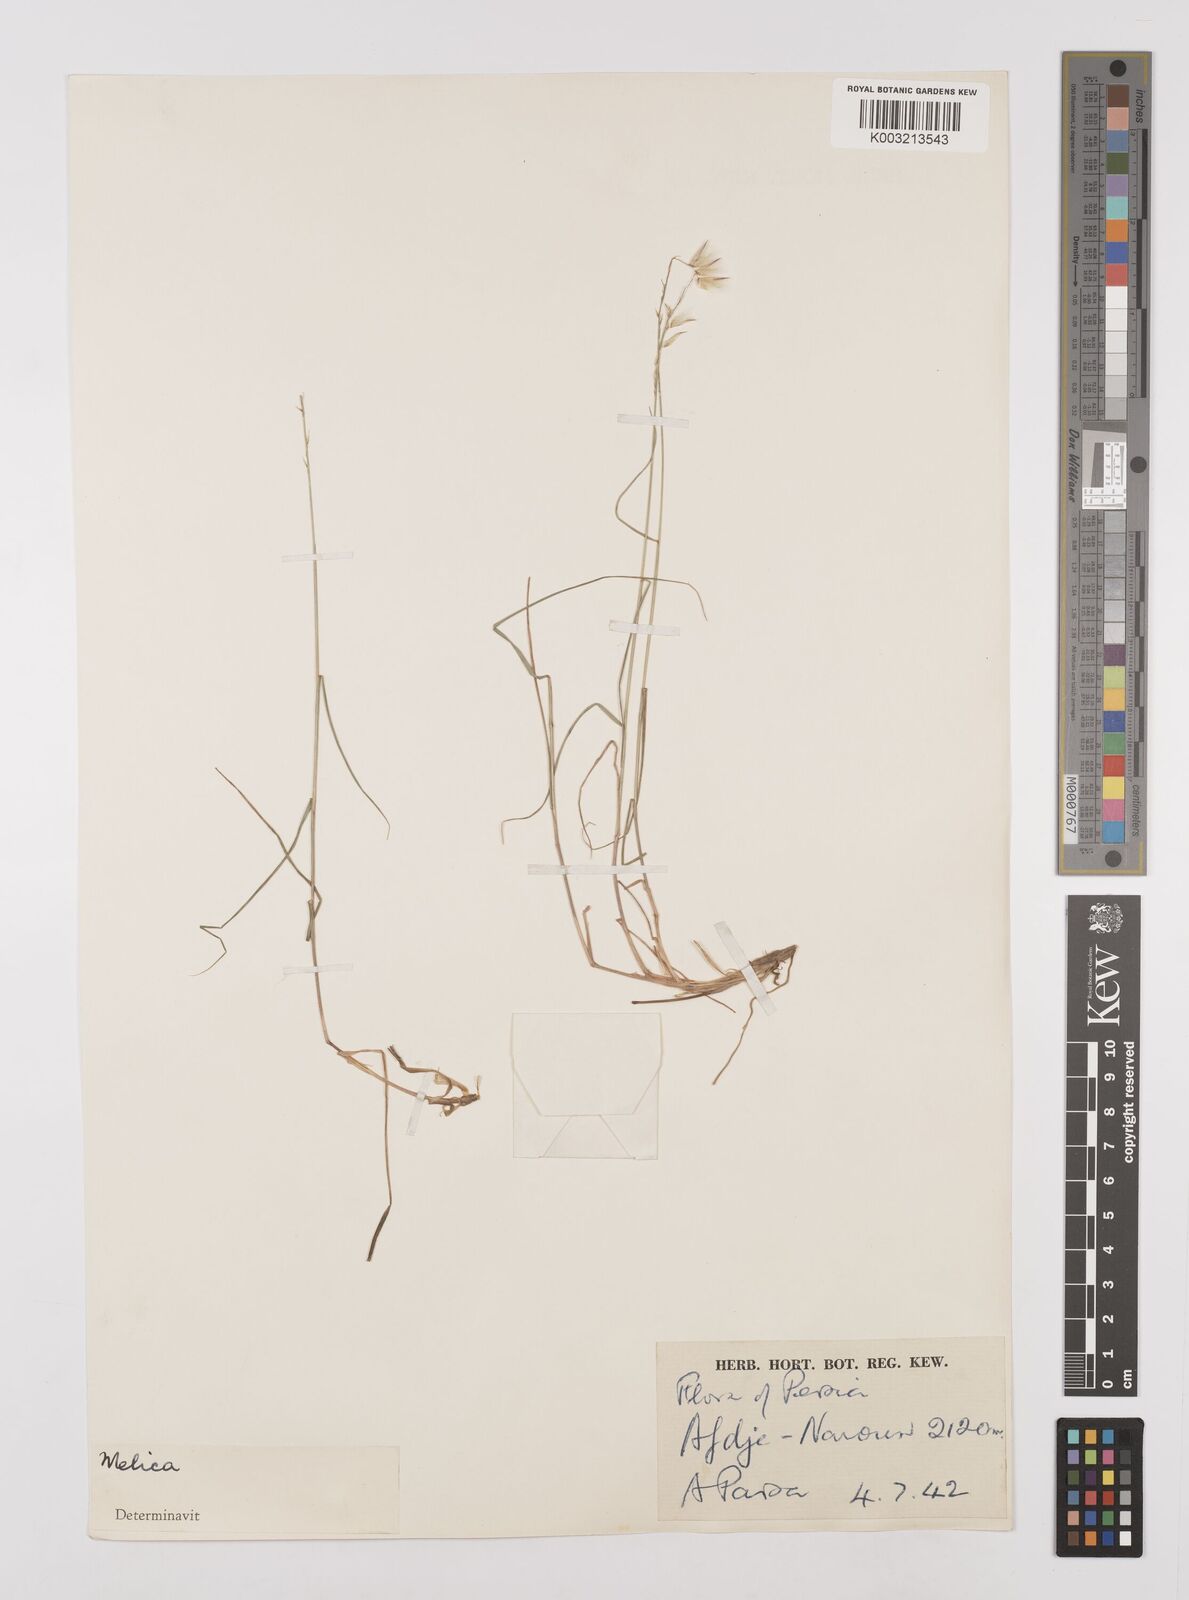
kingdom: Plantae
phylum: Tracheophyta
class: Liliopsida
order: Poales
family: Poaceae
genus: Melica
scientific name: Melica persica
